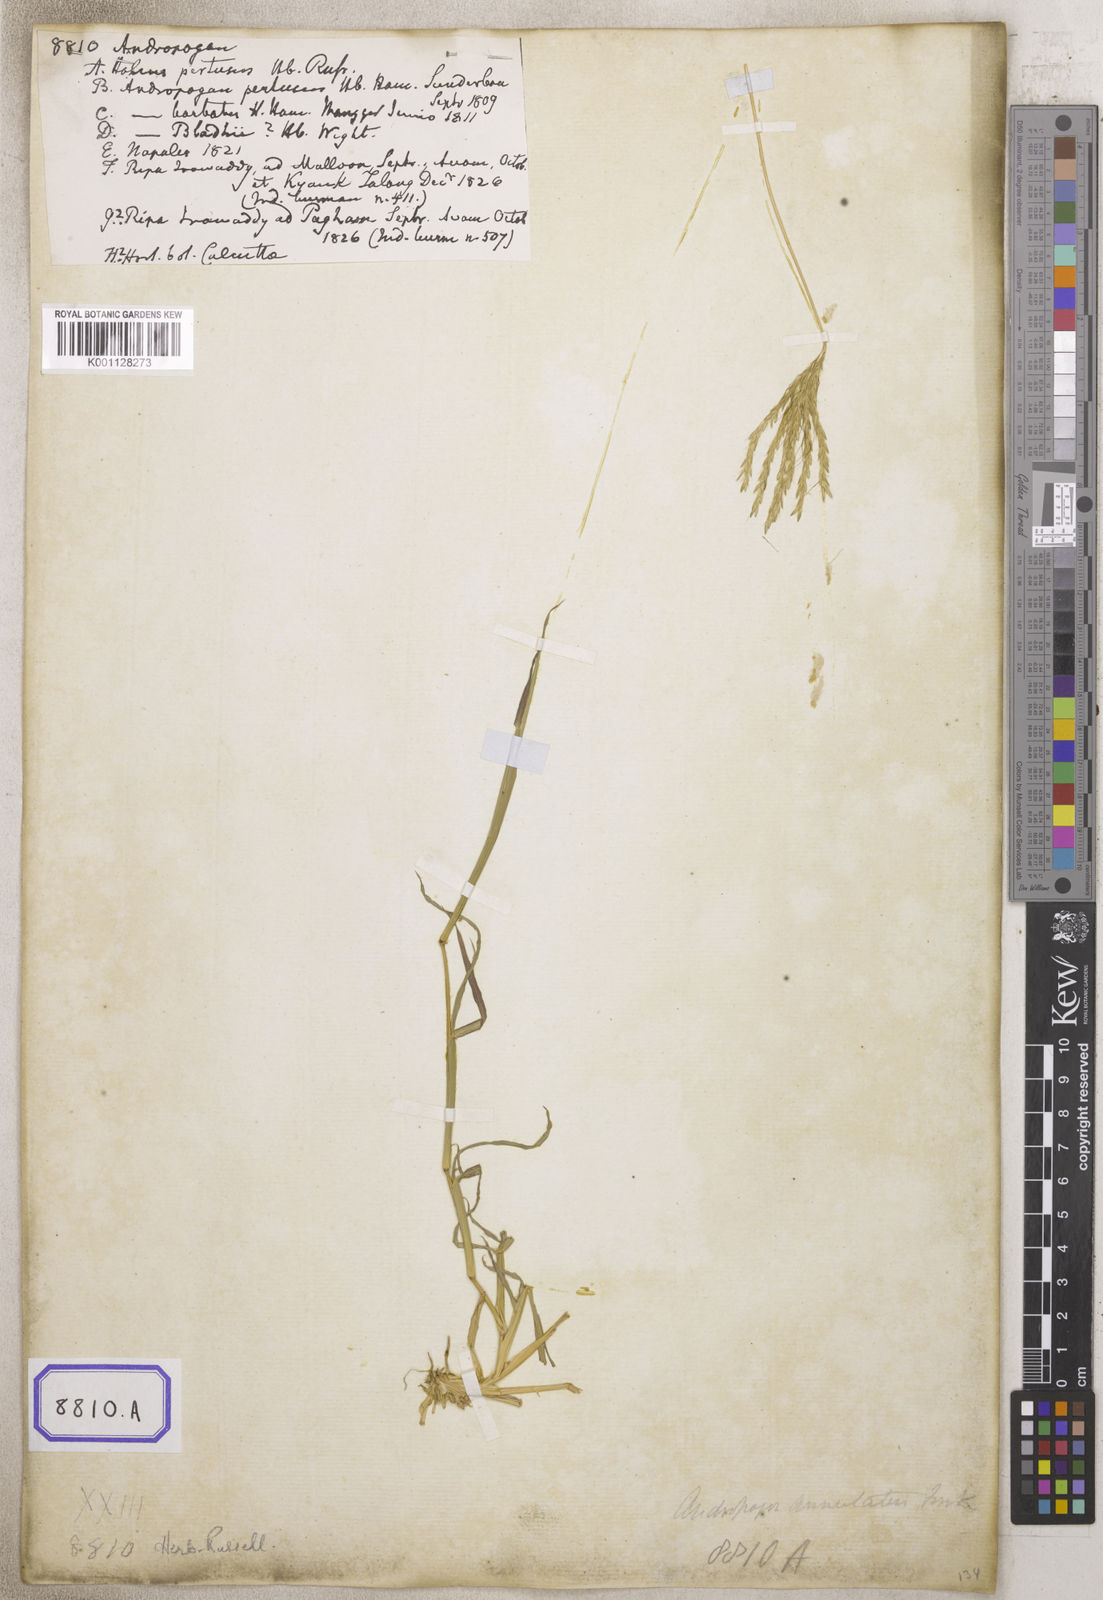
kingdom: Plantae
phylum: Tracheophyta
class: Liliopsida
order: Poales
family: Poaceae
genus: Andropogon
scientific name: Andropogon
